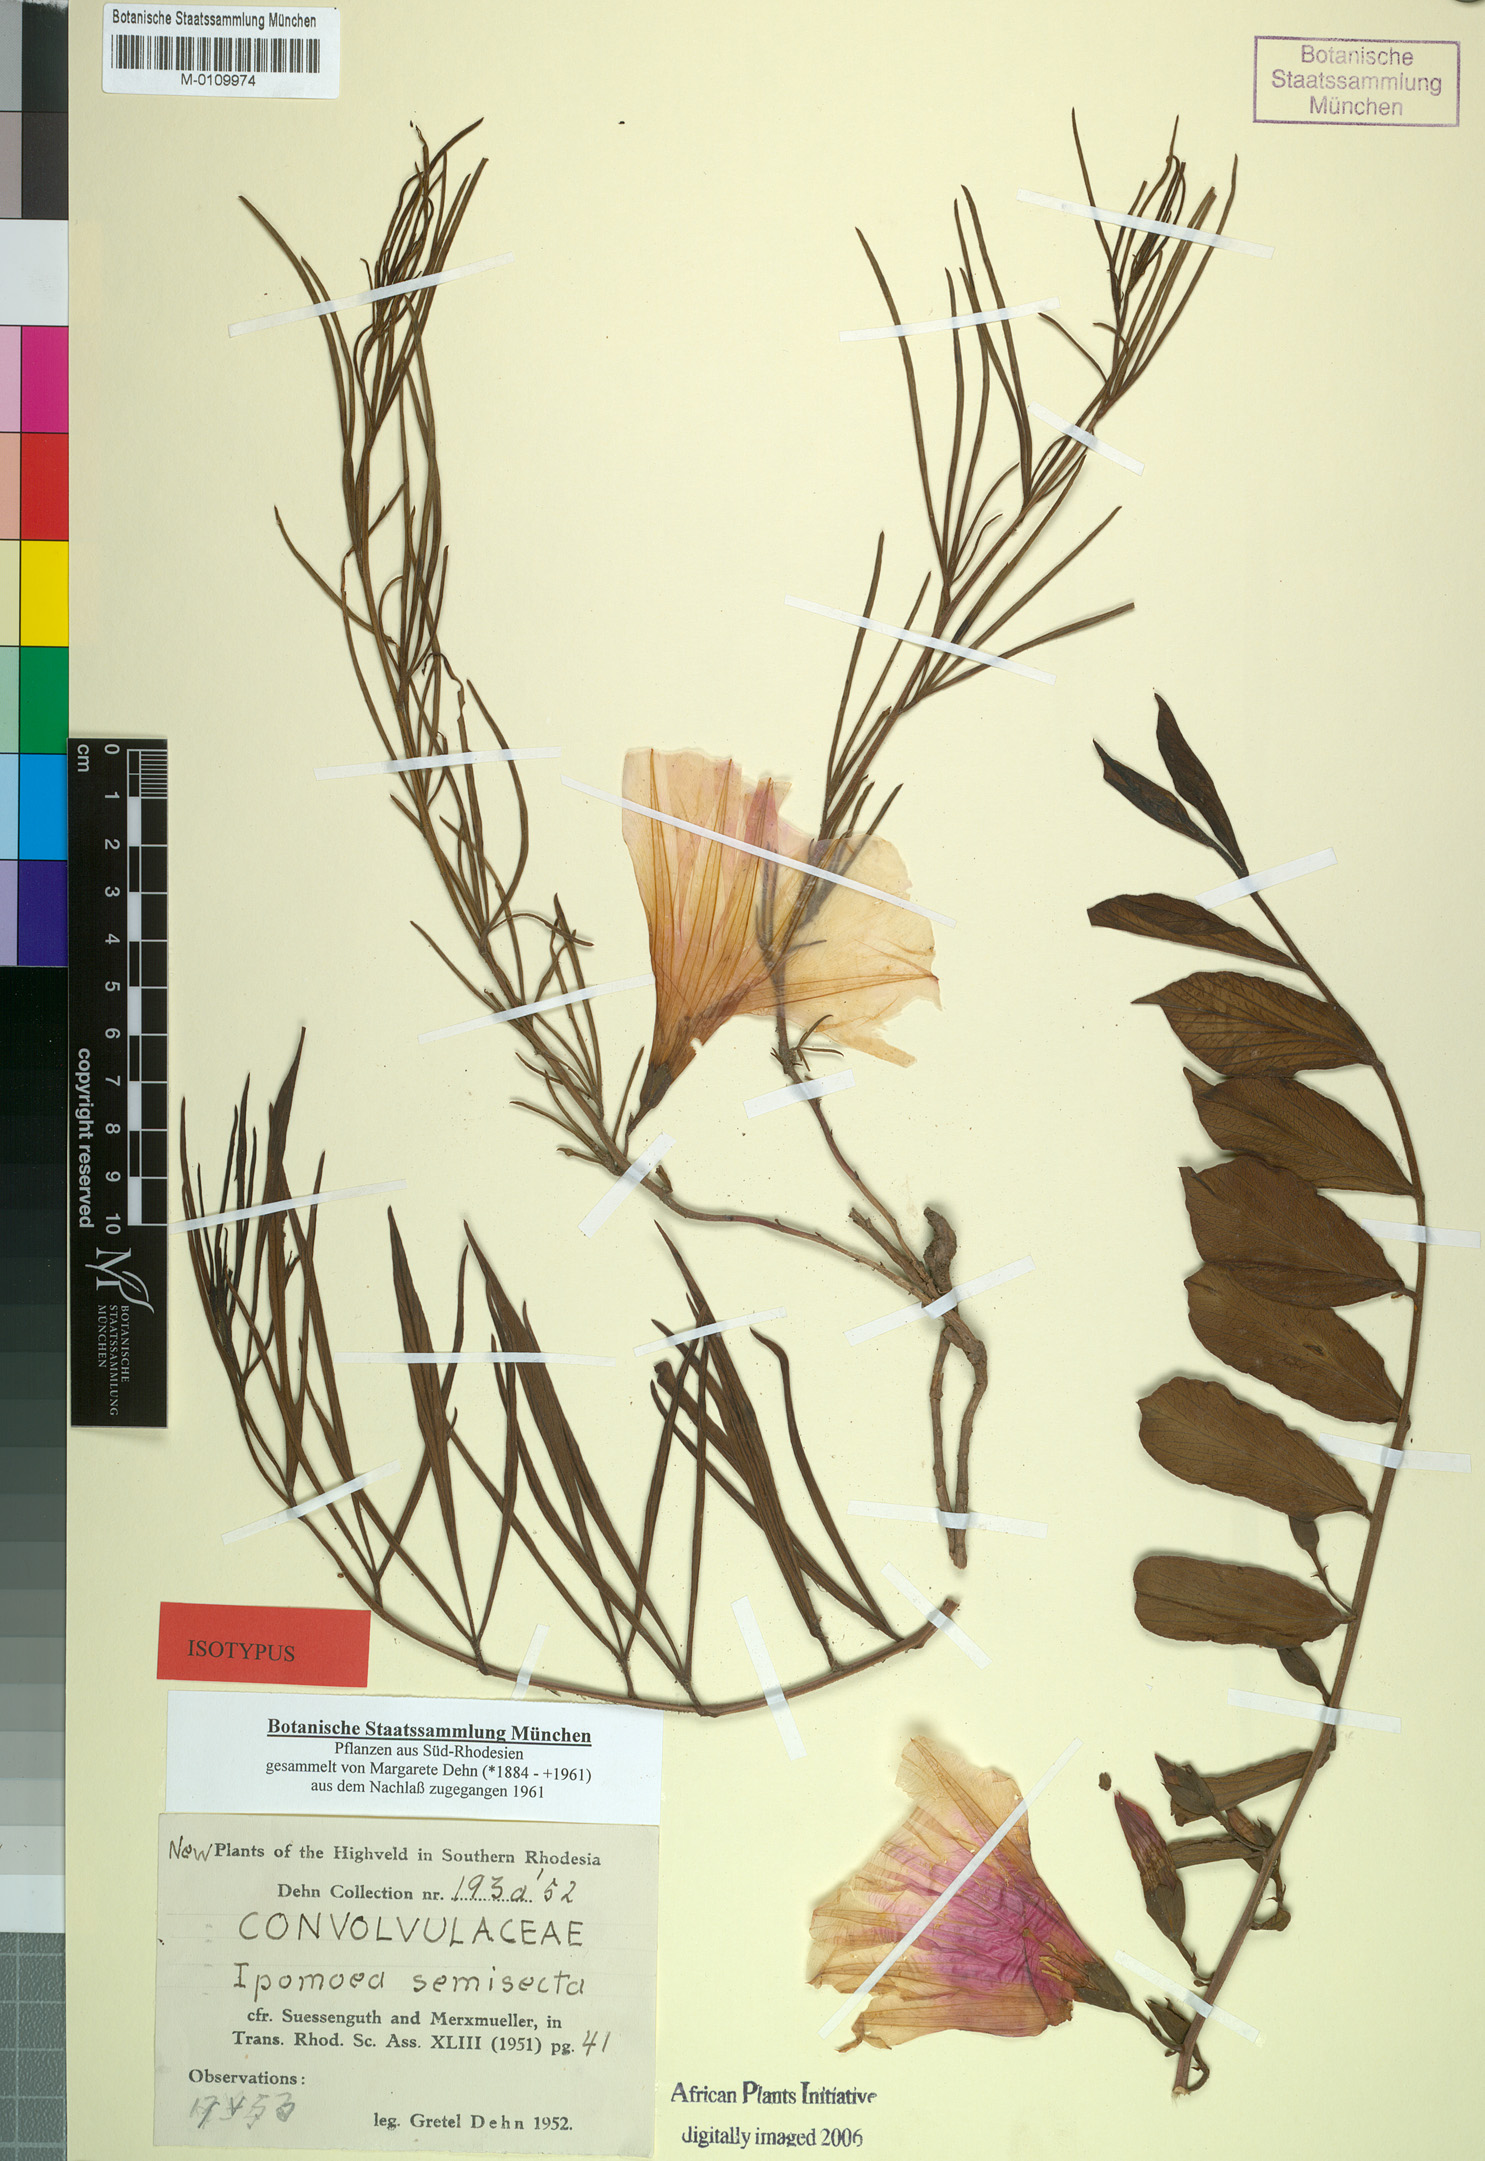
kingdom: Plantae
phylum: Tracheophyta
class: Magnoliopsida
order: Solanales
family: Convolvulaceae
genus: Ipomoea
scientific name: Ipomoea welwitschii
